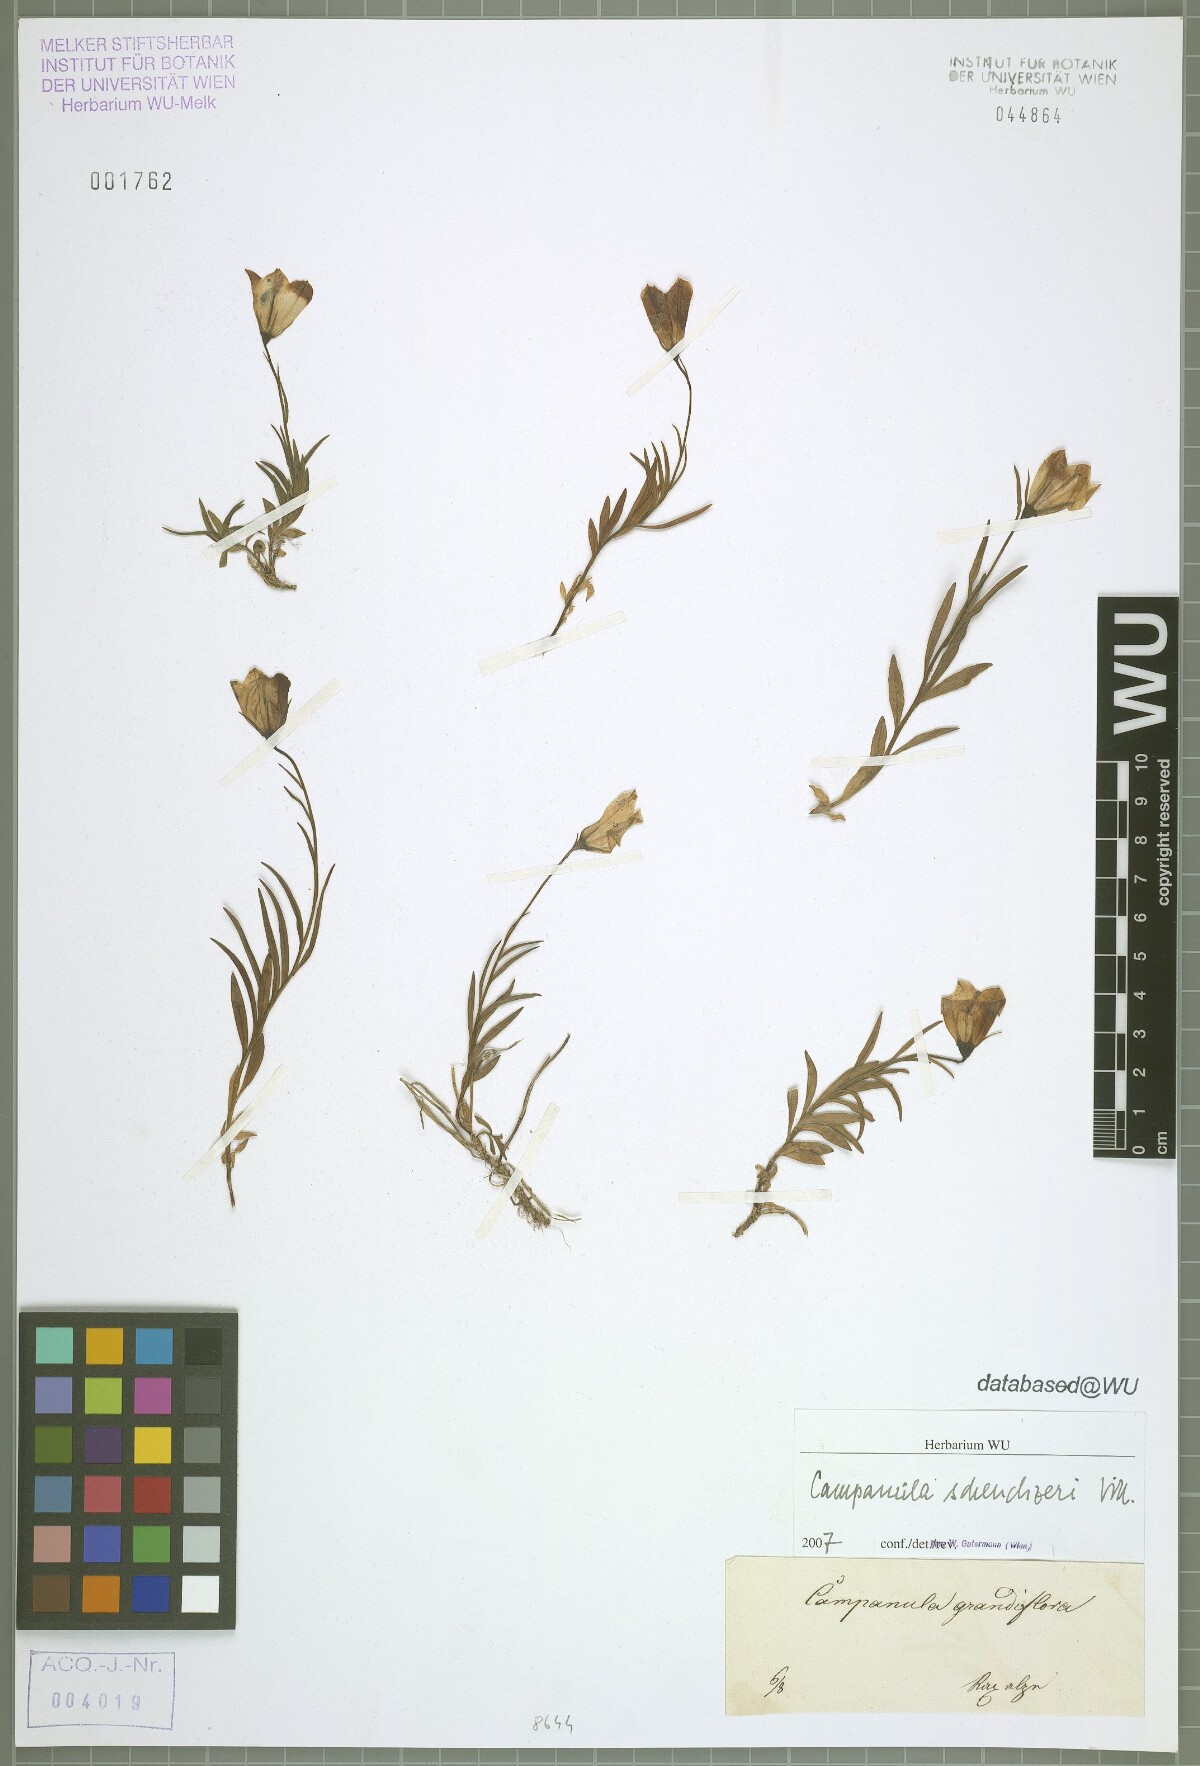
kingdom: Plantae
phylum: Tracheophyta
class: Magnoliopsida
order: Asterales
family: Campanulaceae
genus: Campanula
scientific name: Campanula scheuchzeri
